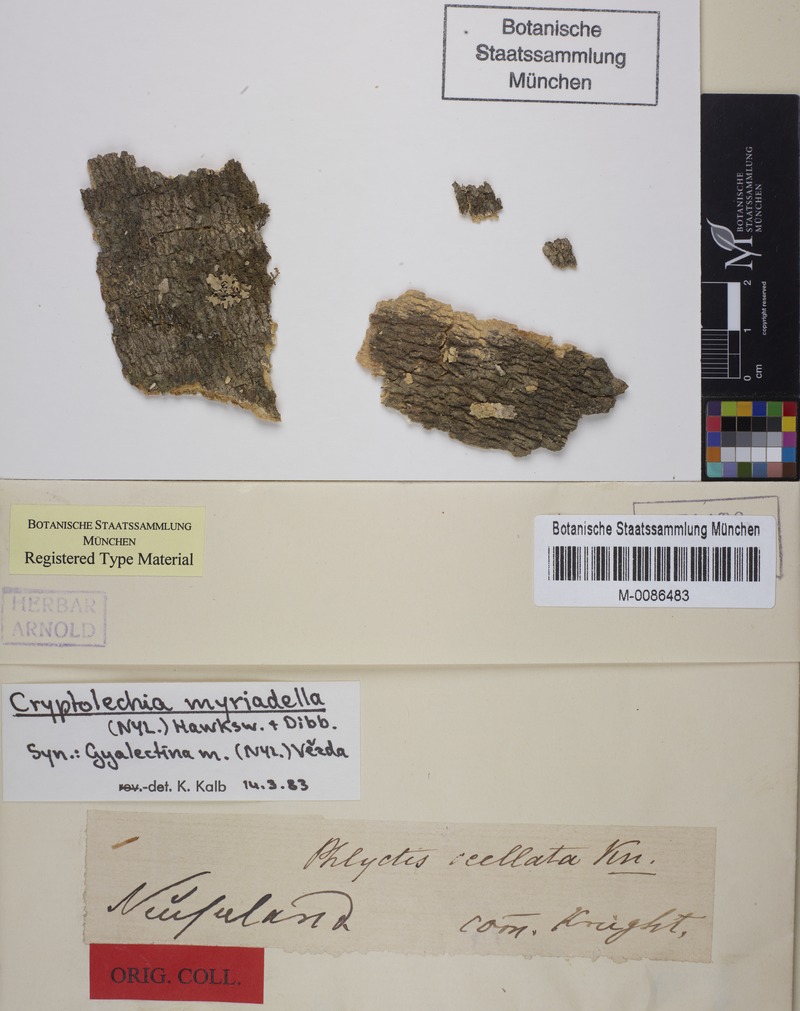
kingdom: Fungi
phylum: Ascomycota
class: Lecanoromycetes
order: Gyalectales
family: Gyalectaceae
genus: Cryptolechia
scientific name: Cryptolechia myriadella
